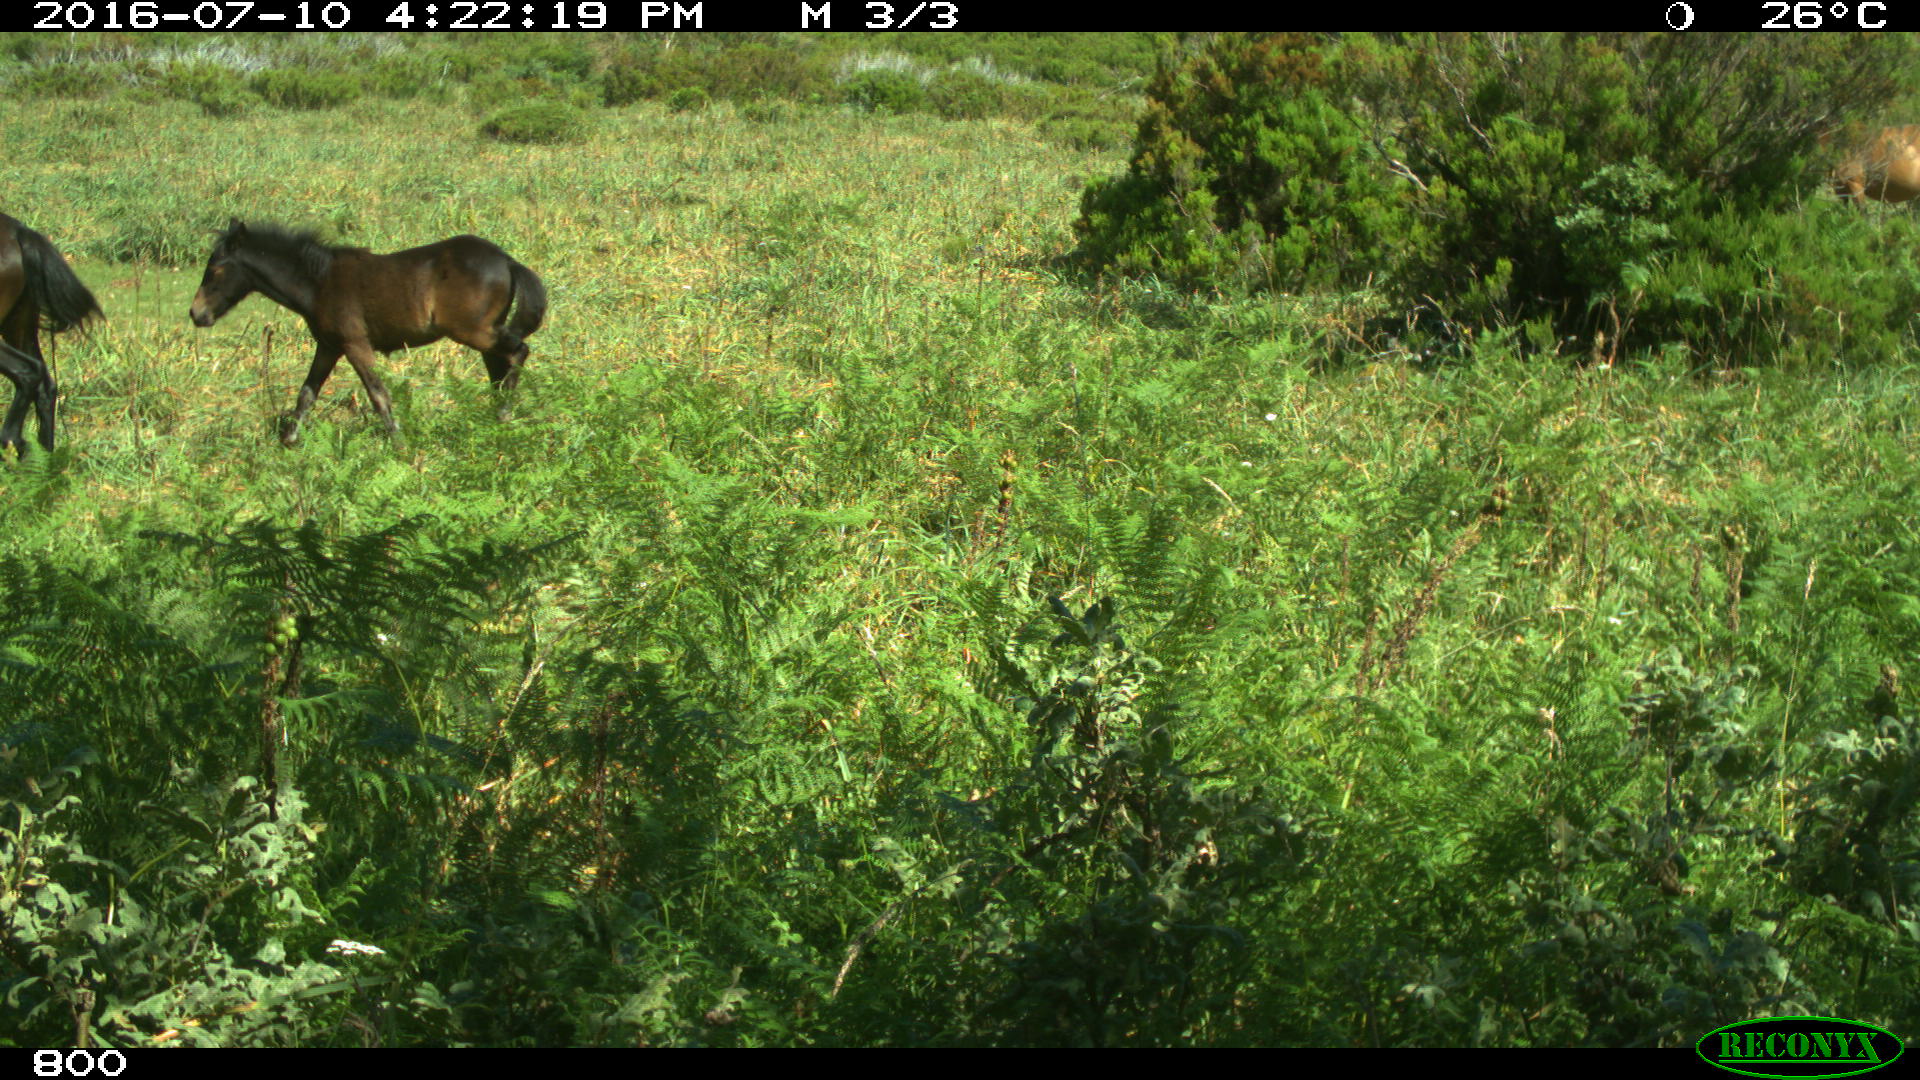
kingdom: Animalia
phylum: Chordata
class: Mammalia
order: Perissodactyla
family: Equidae
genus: Equus
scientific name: Equus caballus
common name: Horse
